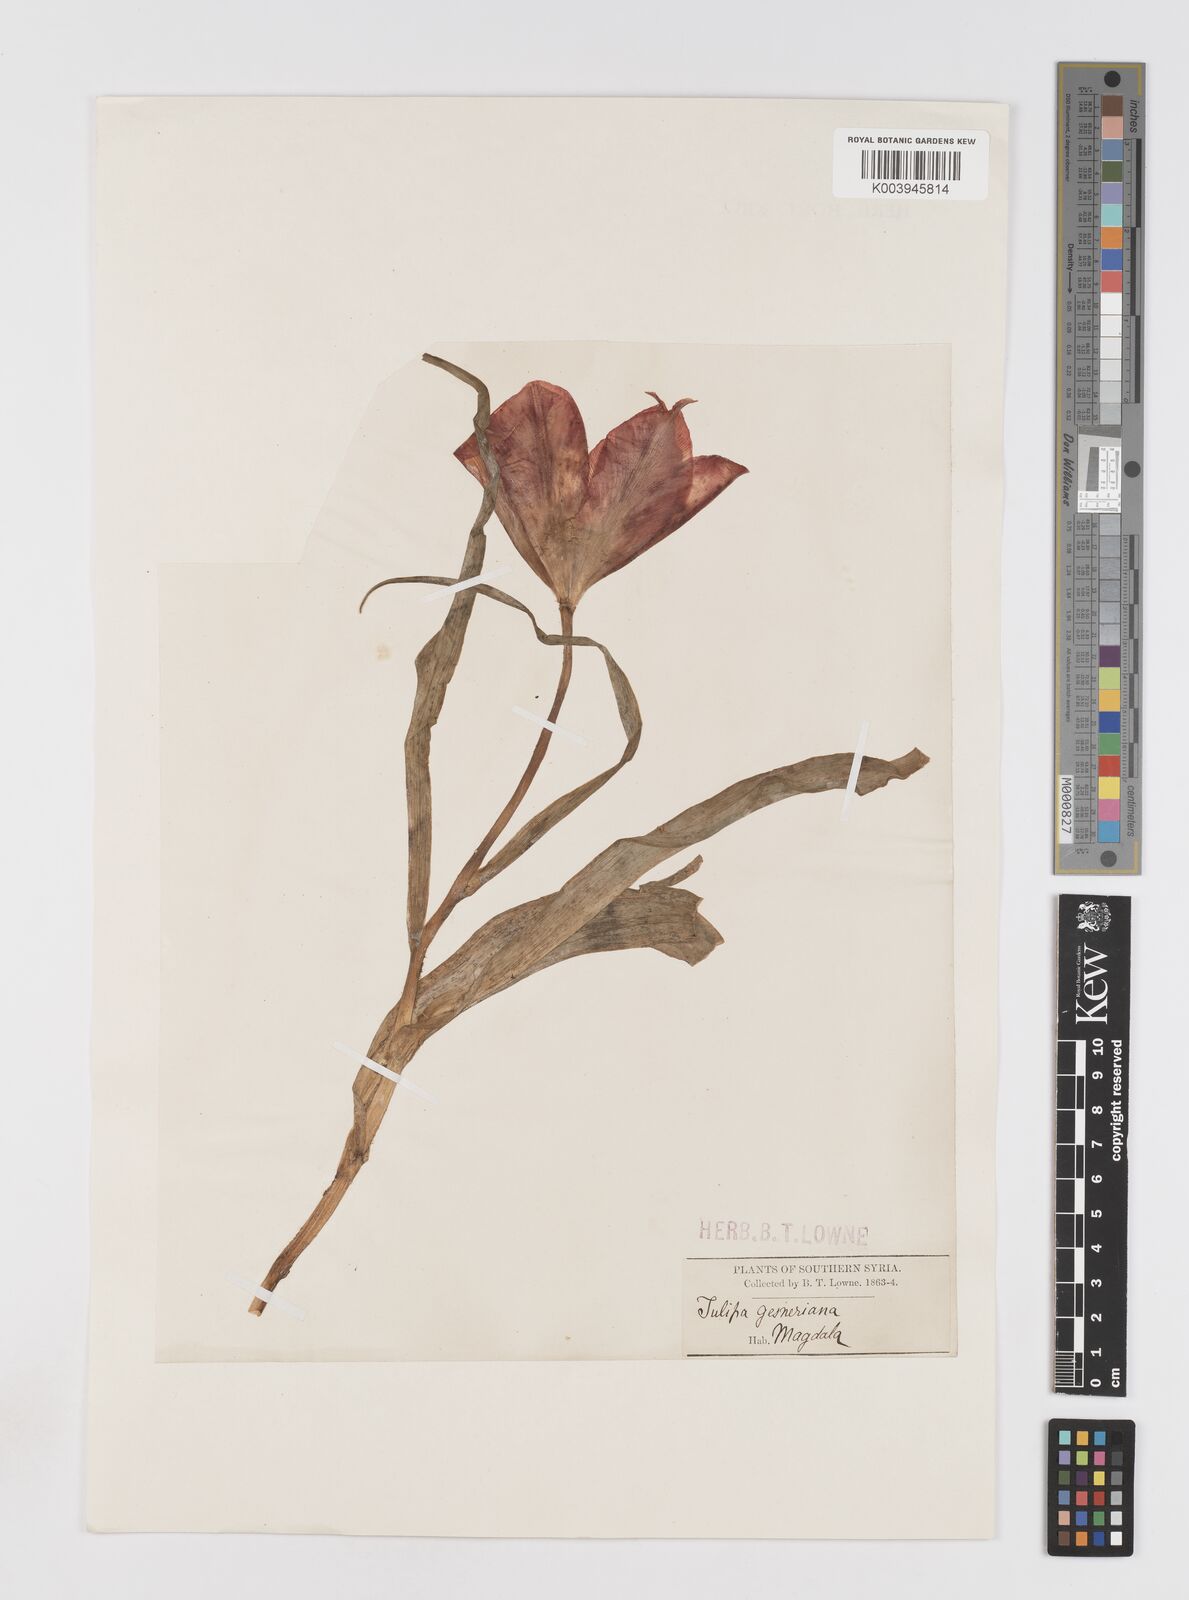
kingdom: Plantae
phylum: Tracheophyta
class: Liliopsida
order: Liliales
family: Liliaceae
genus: Tulipa
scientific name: Tulipa aleppensis
